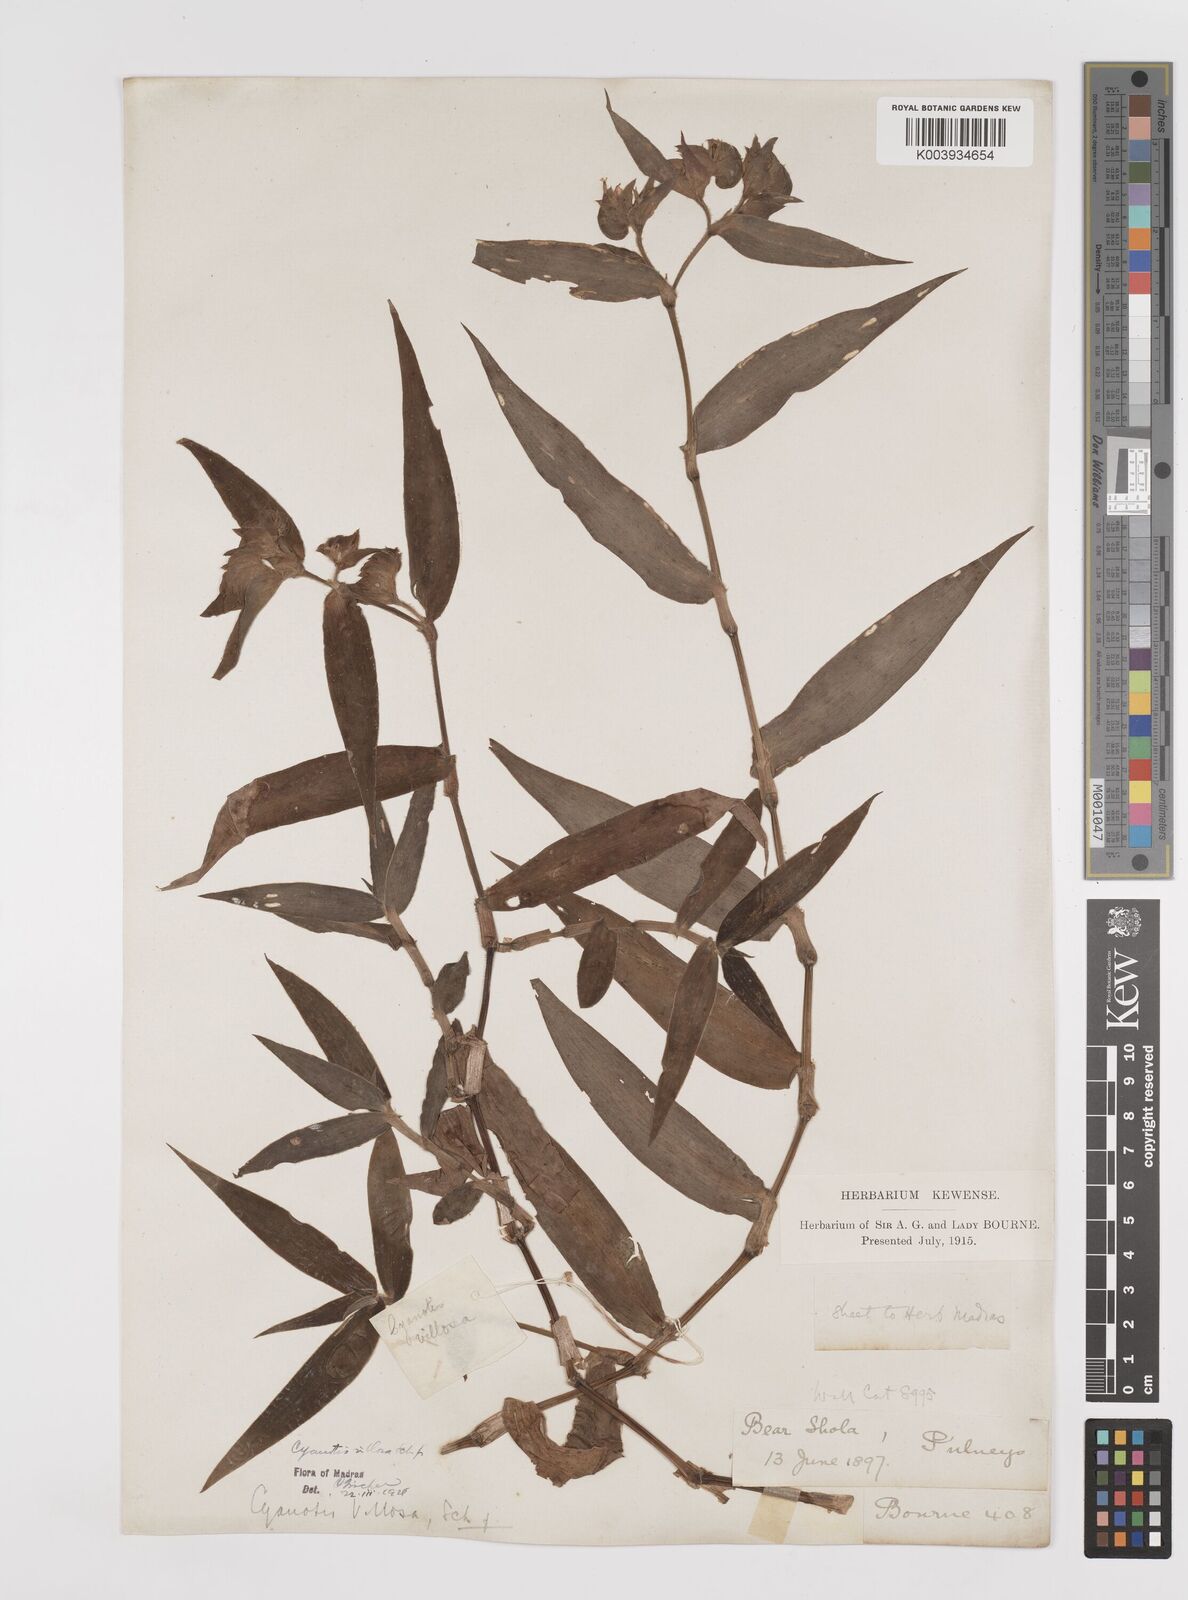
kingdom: Plantae
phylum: Tracheophyta
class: Liliopsida
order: Commelinales
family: Commelinaceae
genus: Cyanotis
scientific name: Cyanotis villosa
